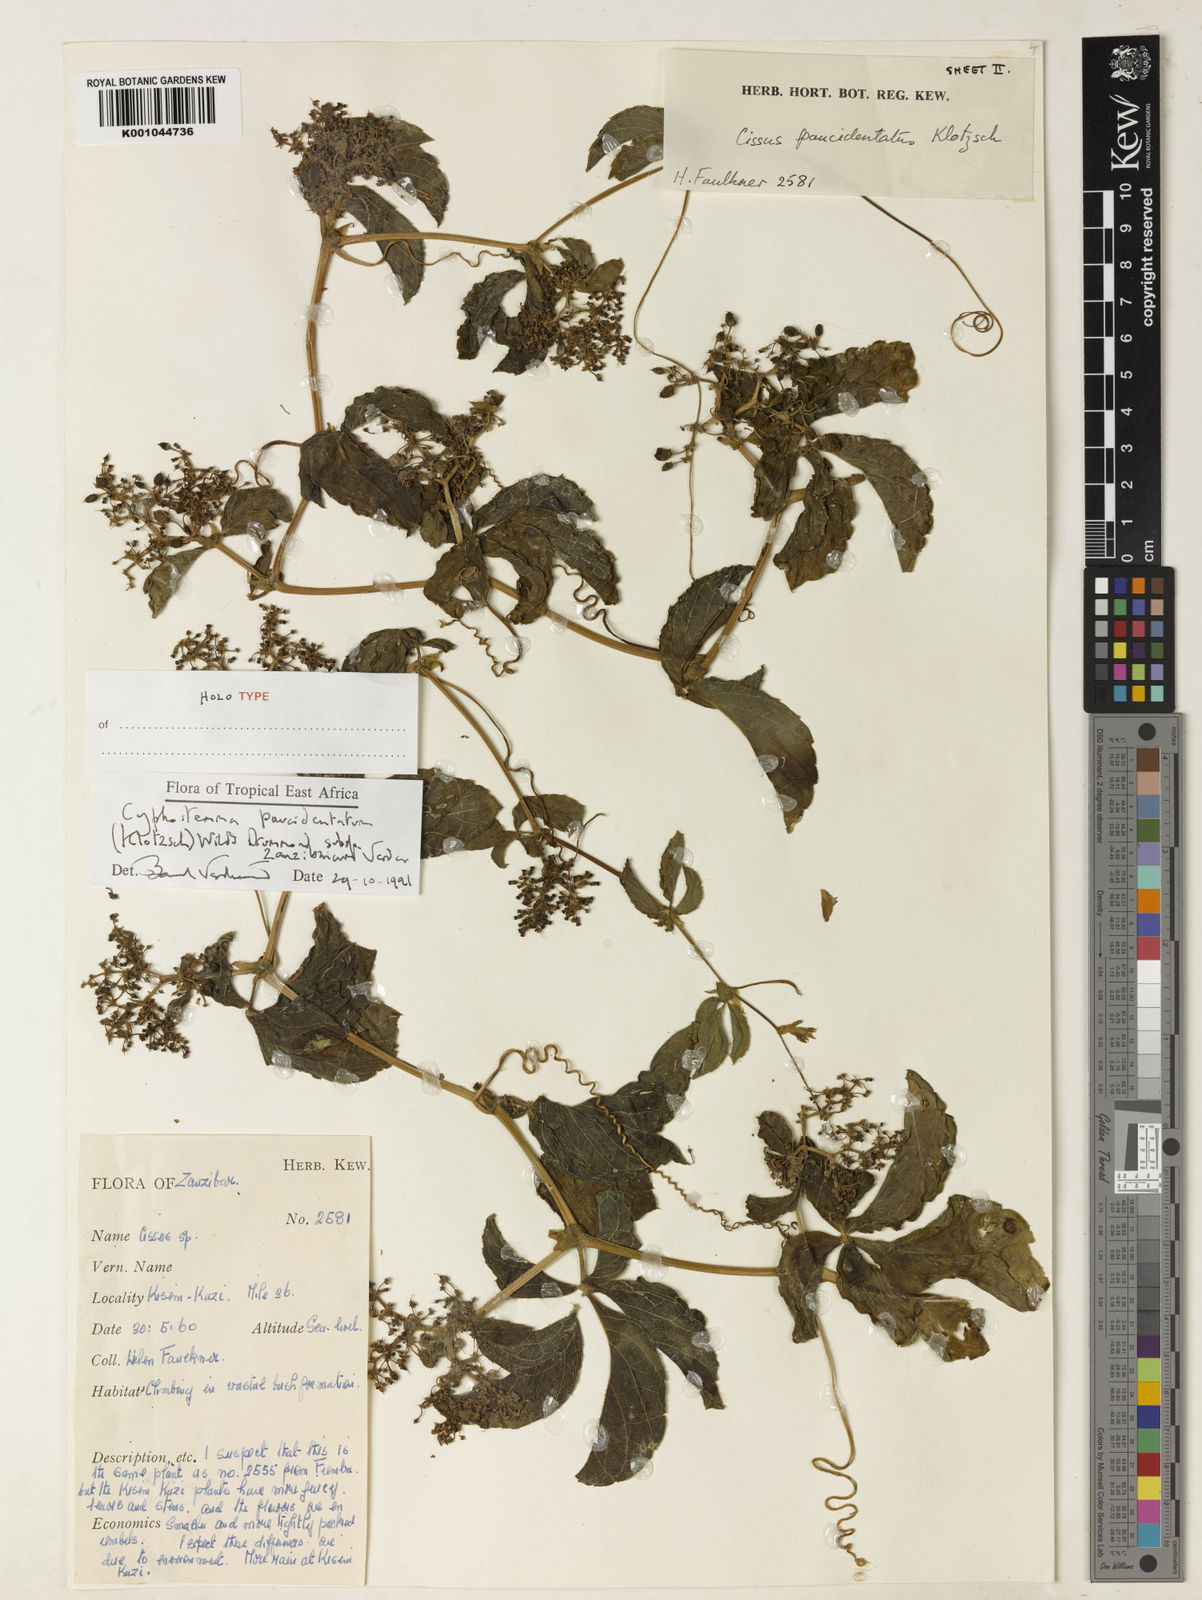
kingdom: Plantae
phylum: Tracheophyta
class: Magnoliopsida
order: Vitales
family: Vitaceae
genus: Cyphostemma
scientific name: Cyphostemma
